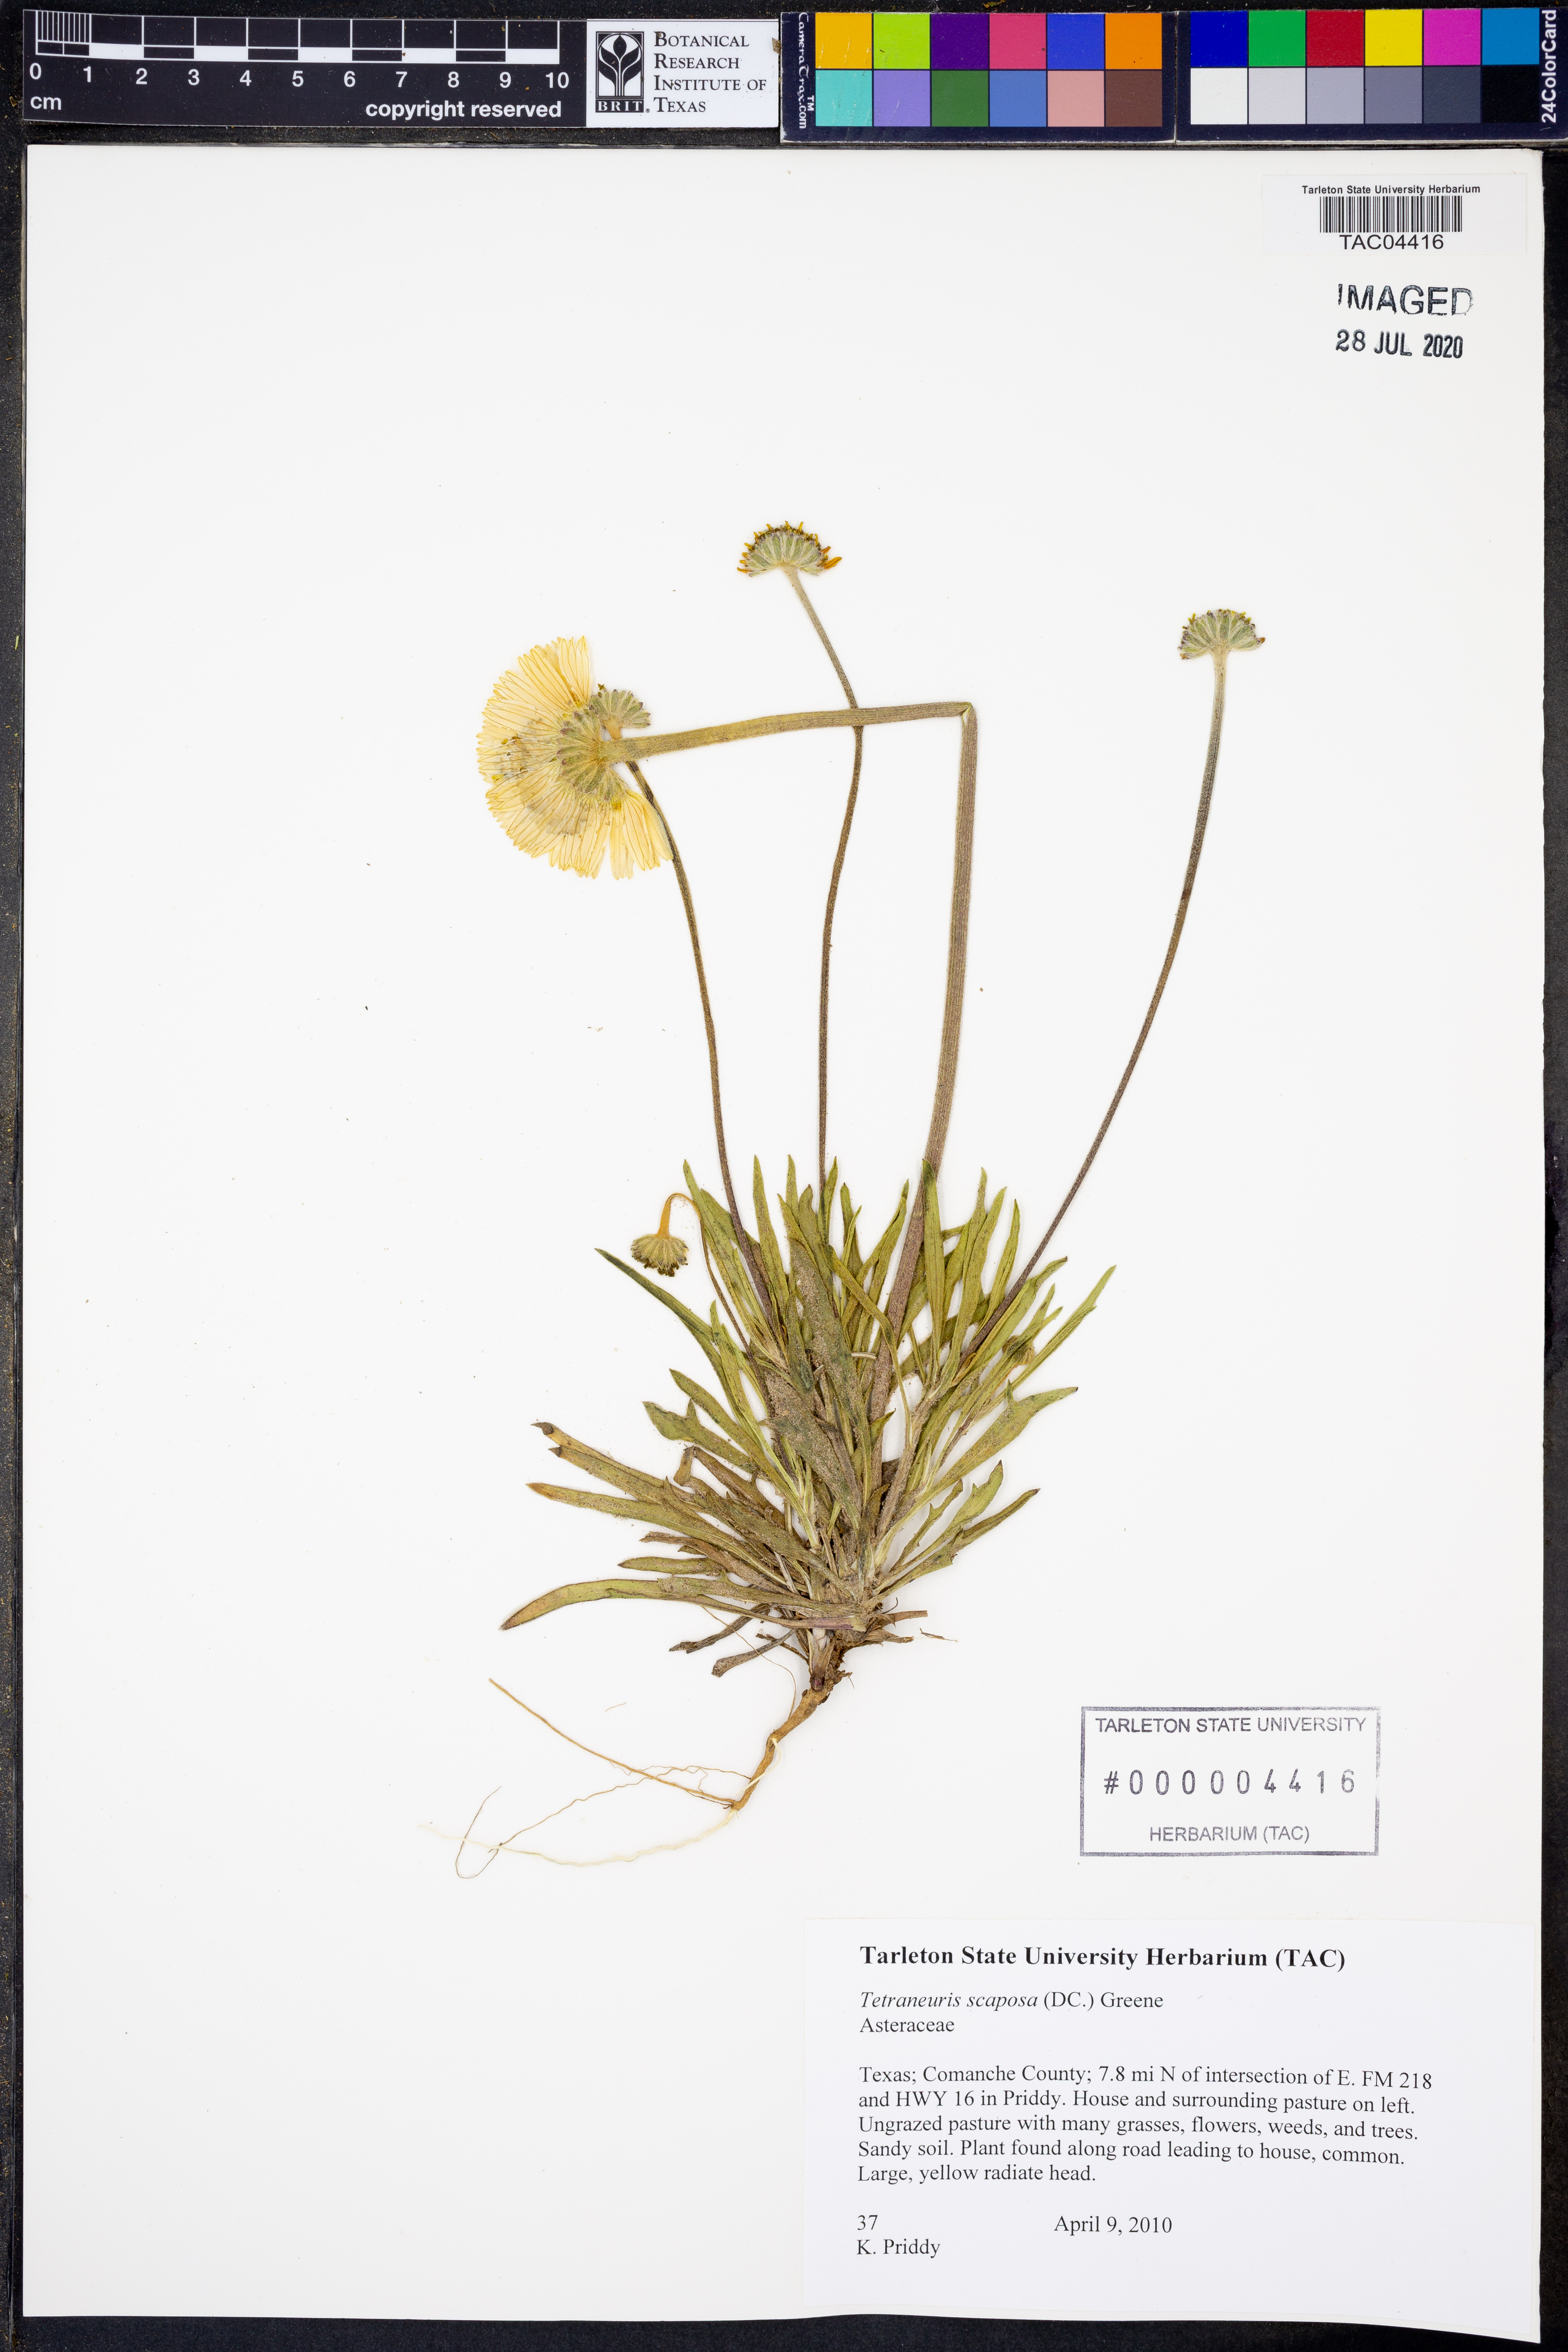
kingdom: Plantae
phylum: Tracheophyta
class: Magnoliopsida
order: Asterales
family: Asteraceae
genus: Tetraneuris
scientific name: Tetraneuris scaposa
